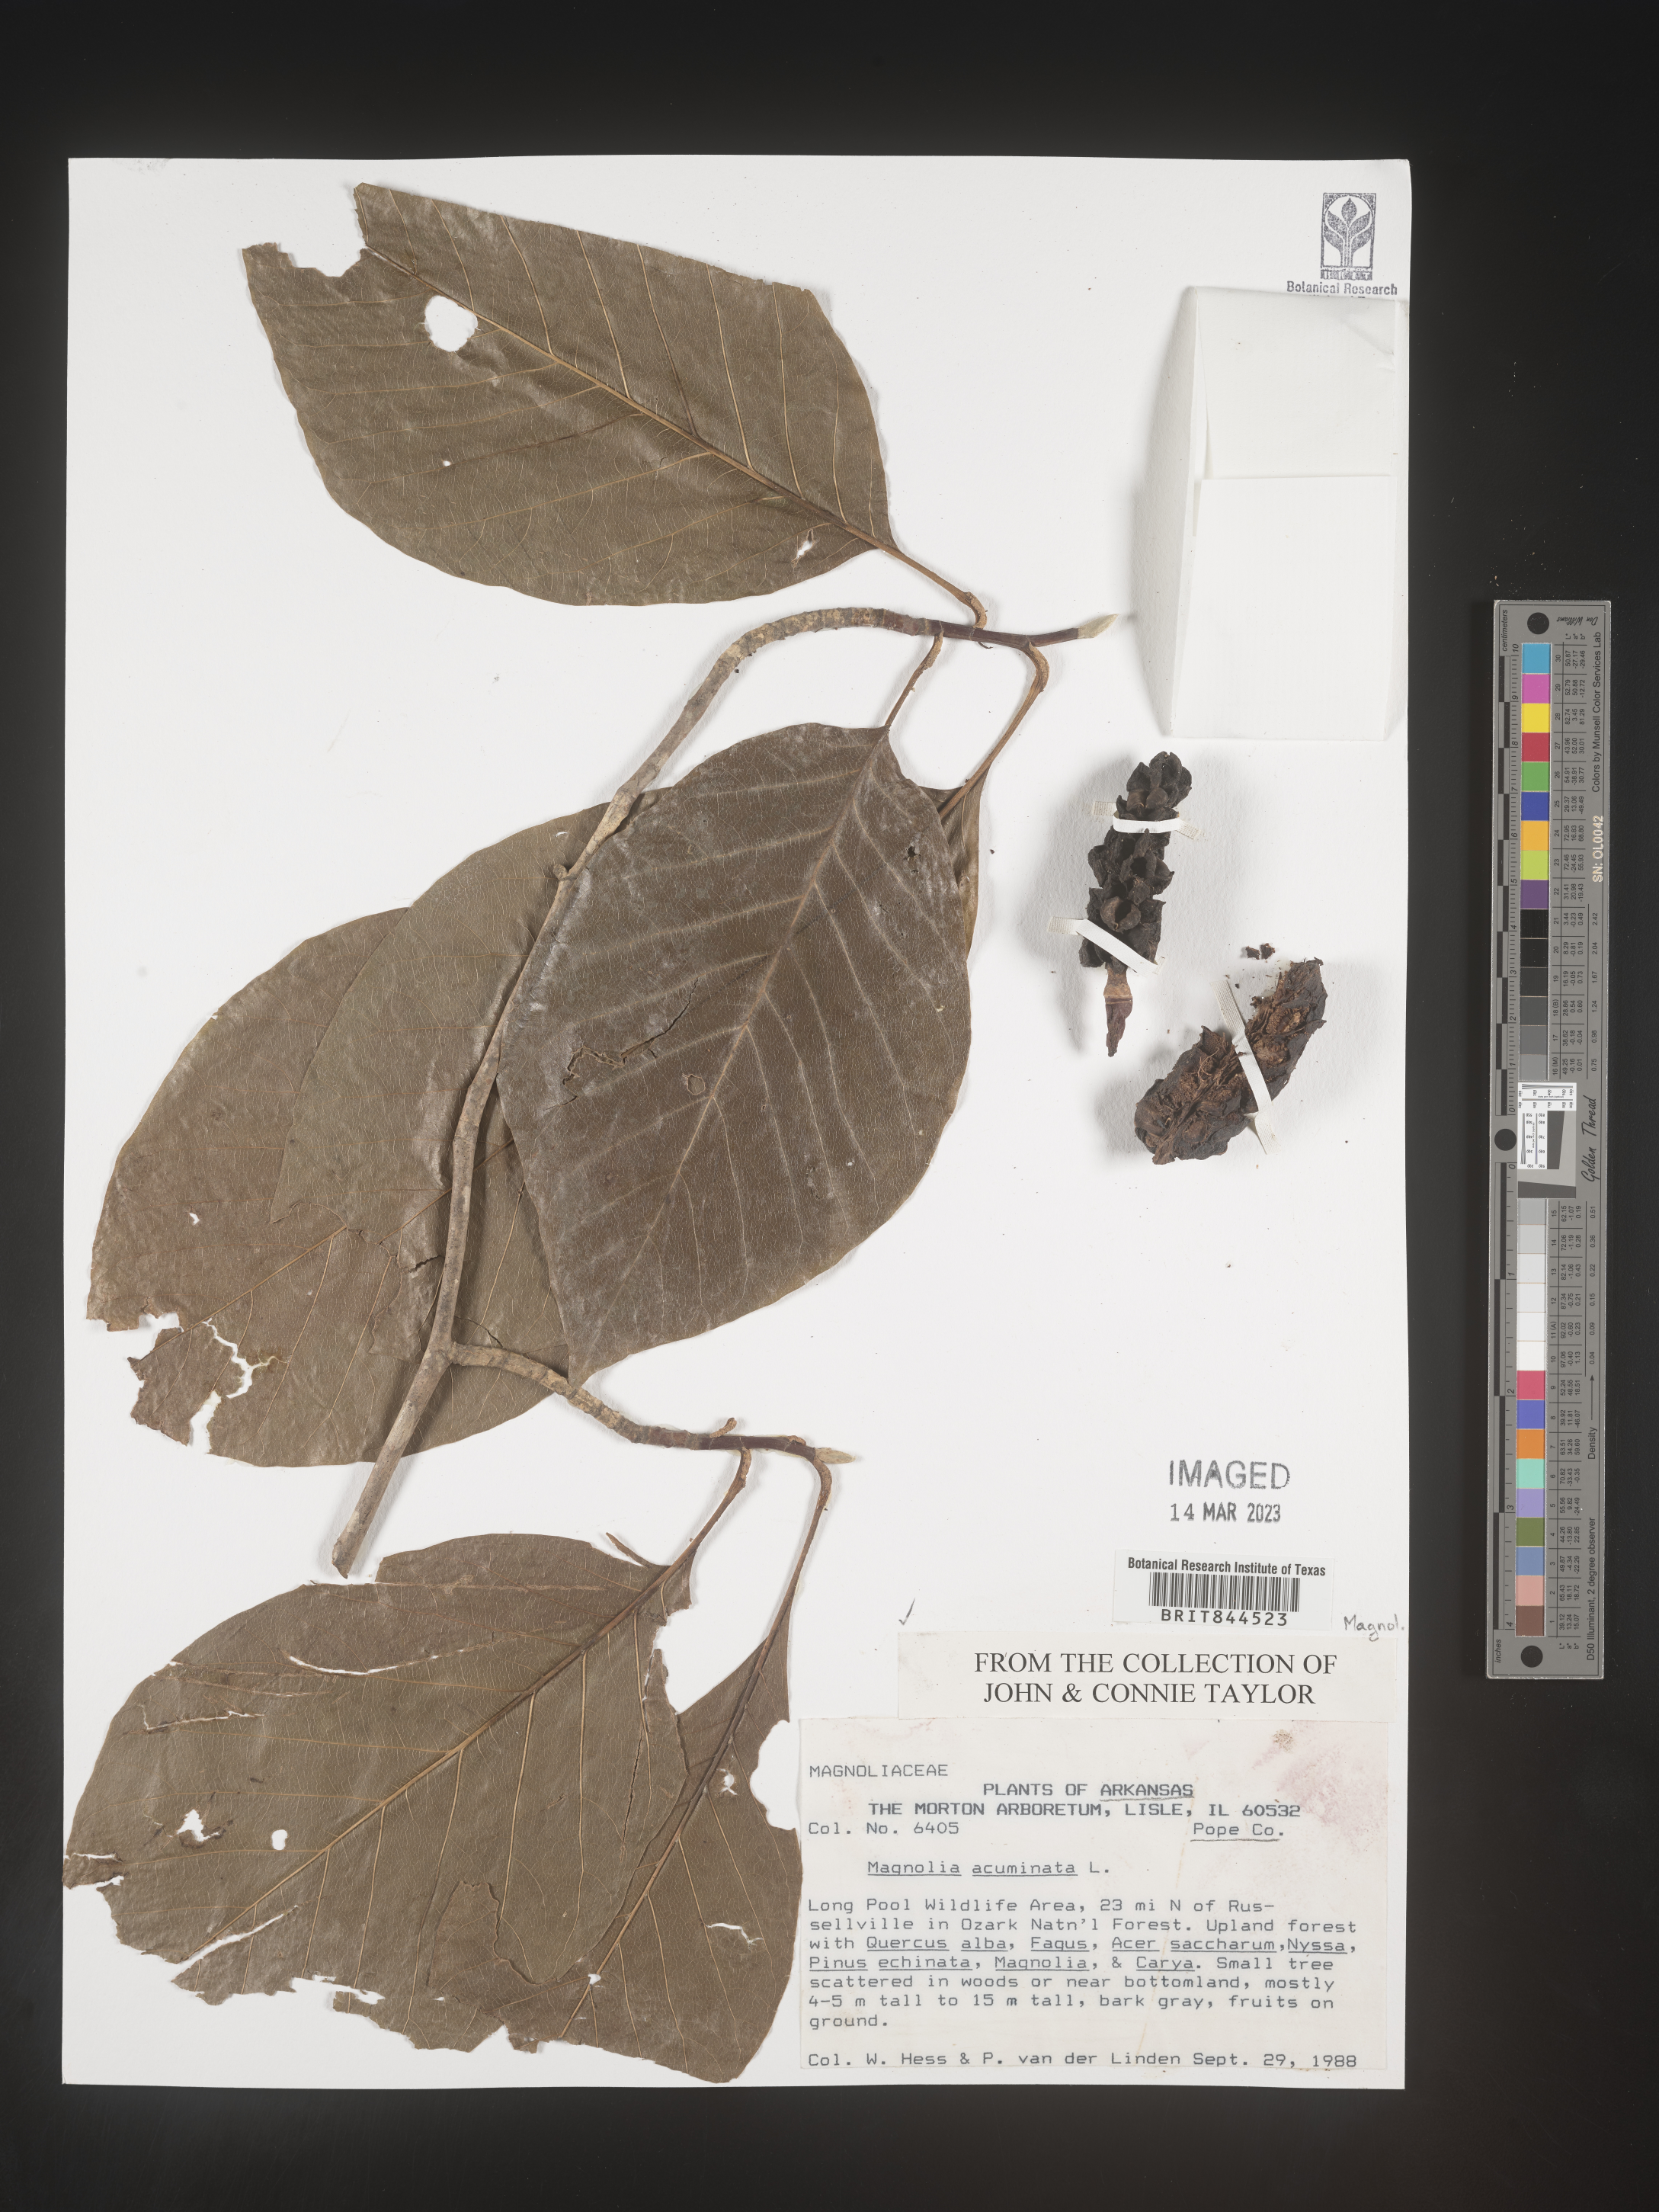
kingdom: Plantae
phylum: Tracheophyta
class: Magnoliopsida
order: Magnoliales
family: Magnoliaceae
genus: Magnolia
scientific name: Magnolia acuminata
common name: Cucumber magnolia
